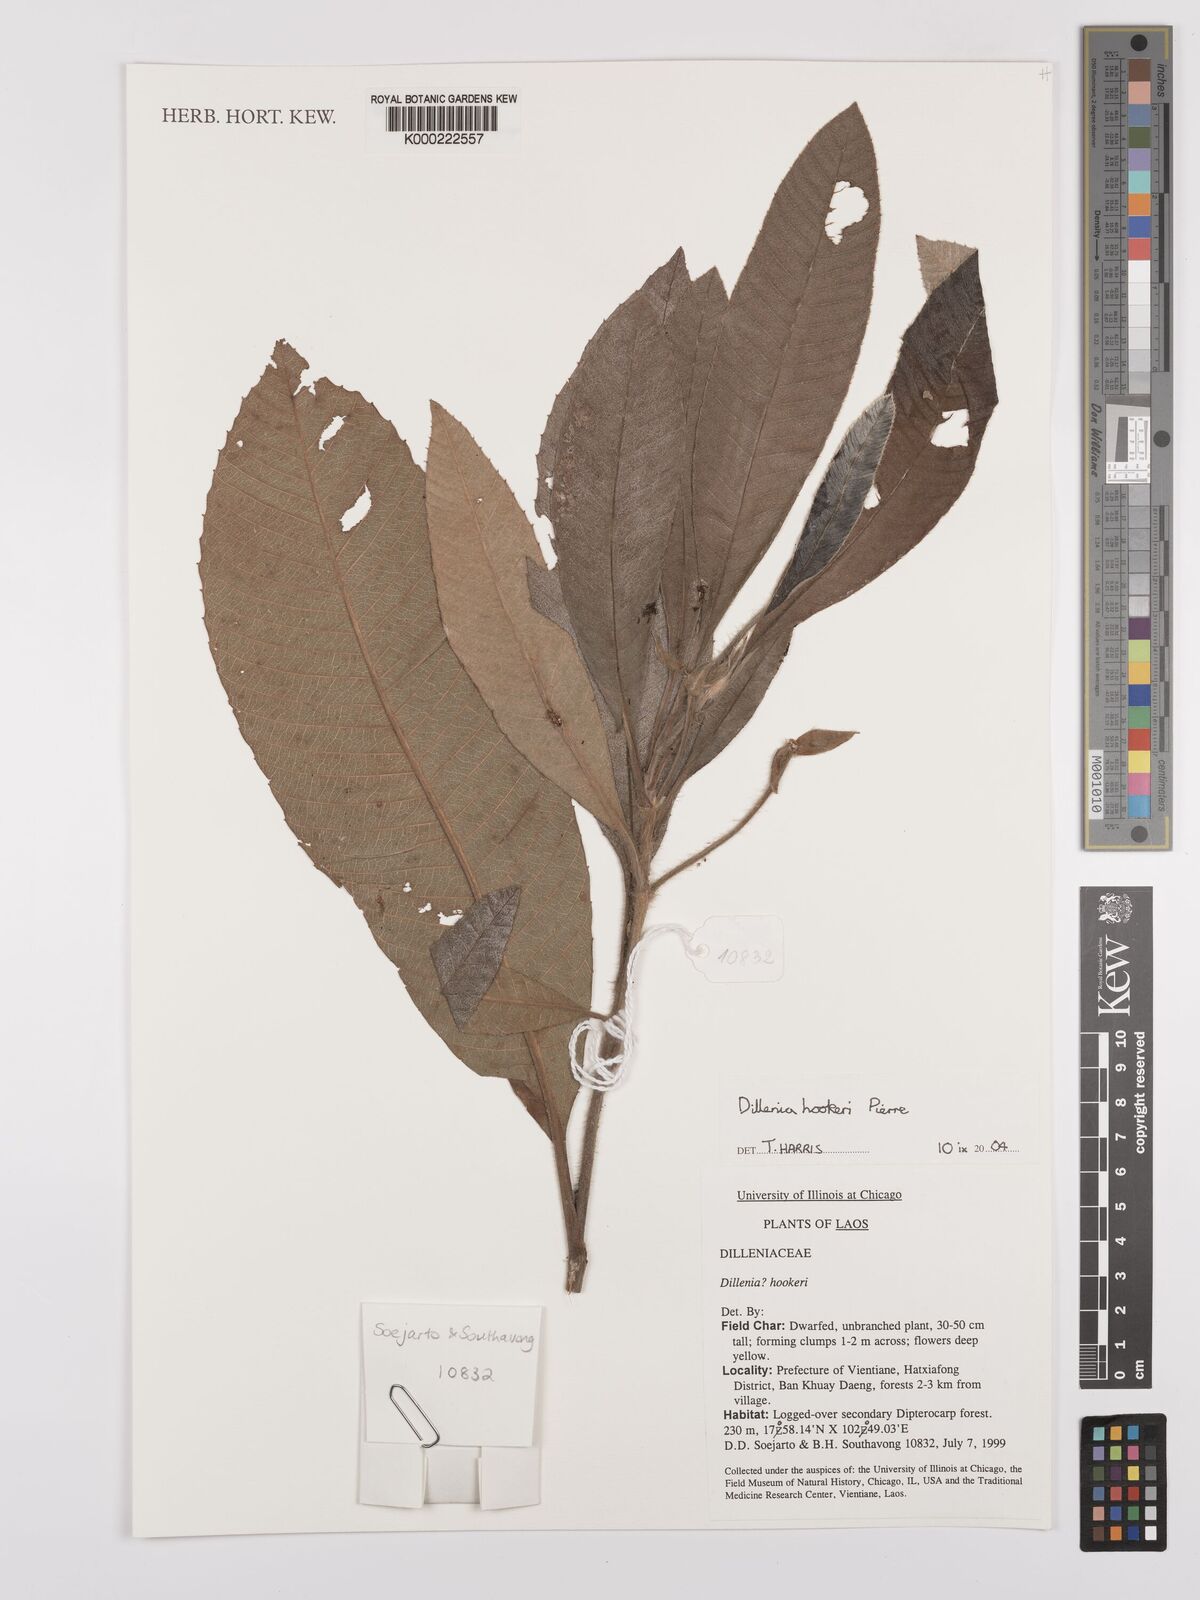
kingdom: Plantae
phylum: Tracheophyta
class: Magnoliopsida
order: Dilleniales
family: Dilleniaceae
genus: Dillenia
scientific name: Dillenia hookeri
